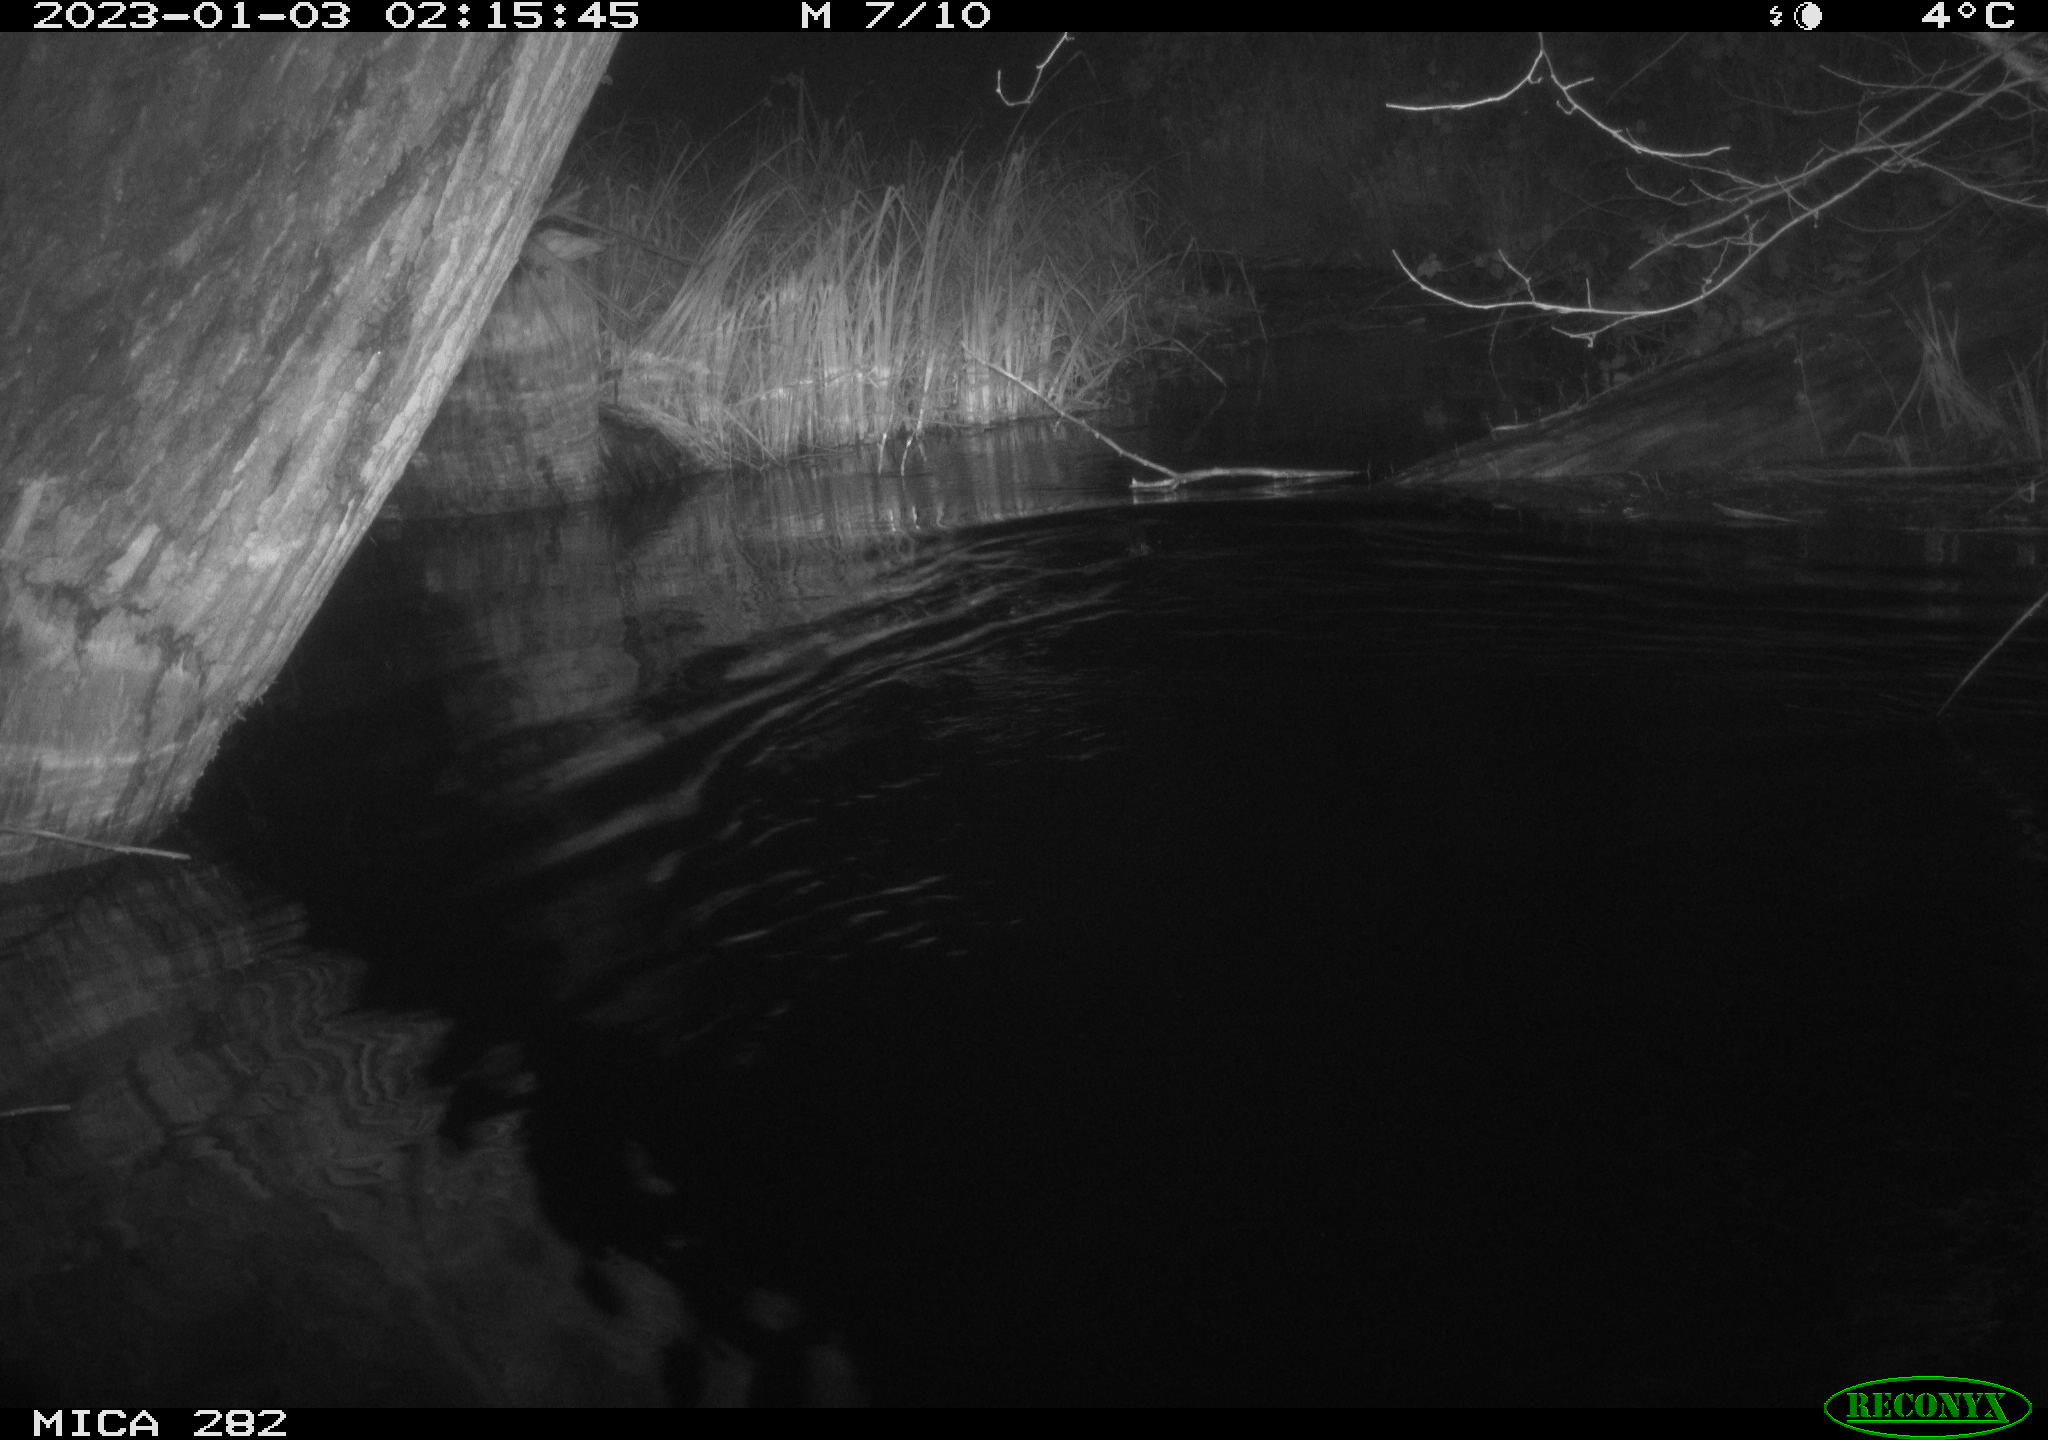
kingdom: Animalia
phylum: Chordata
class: Mammalia
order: Rodentia
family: Castoridae
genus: Castor
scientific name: Castor fiber
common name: Eurasian beaver
